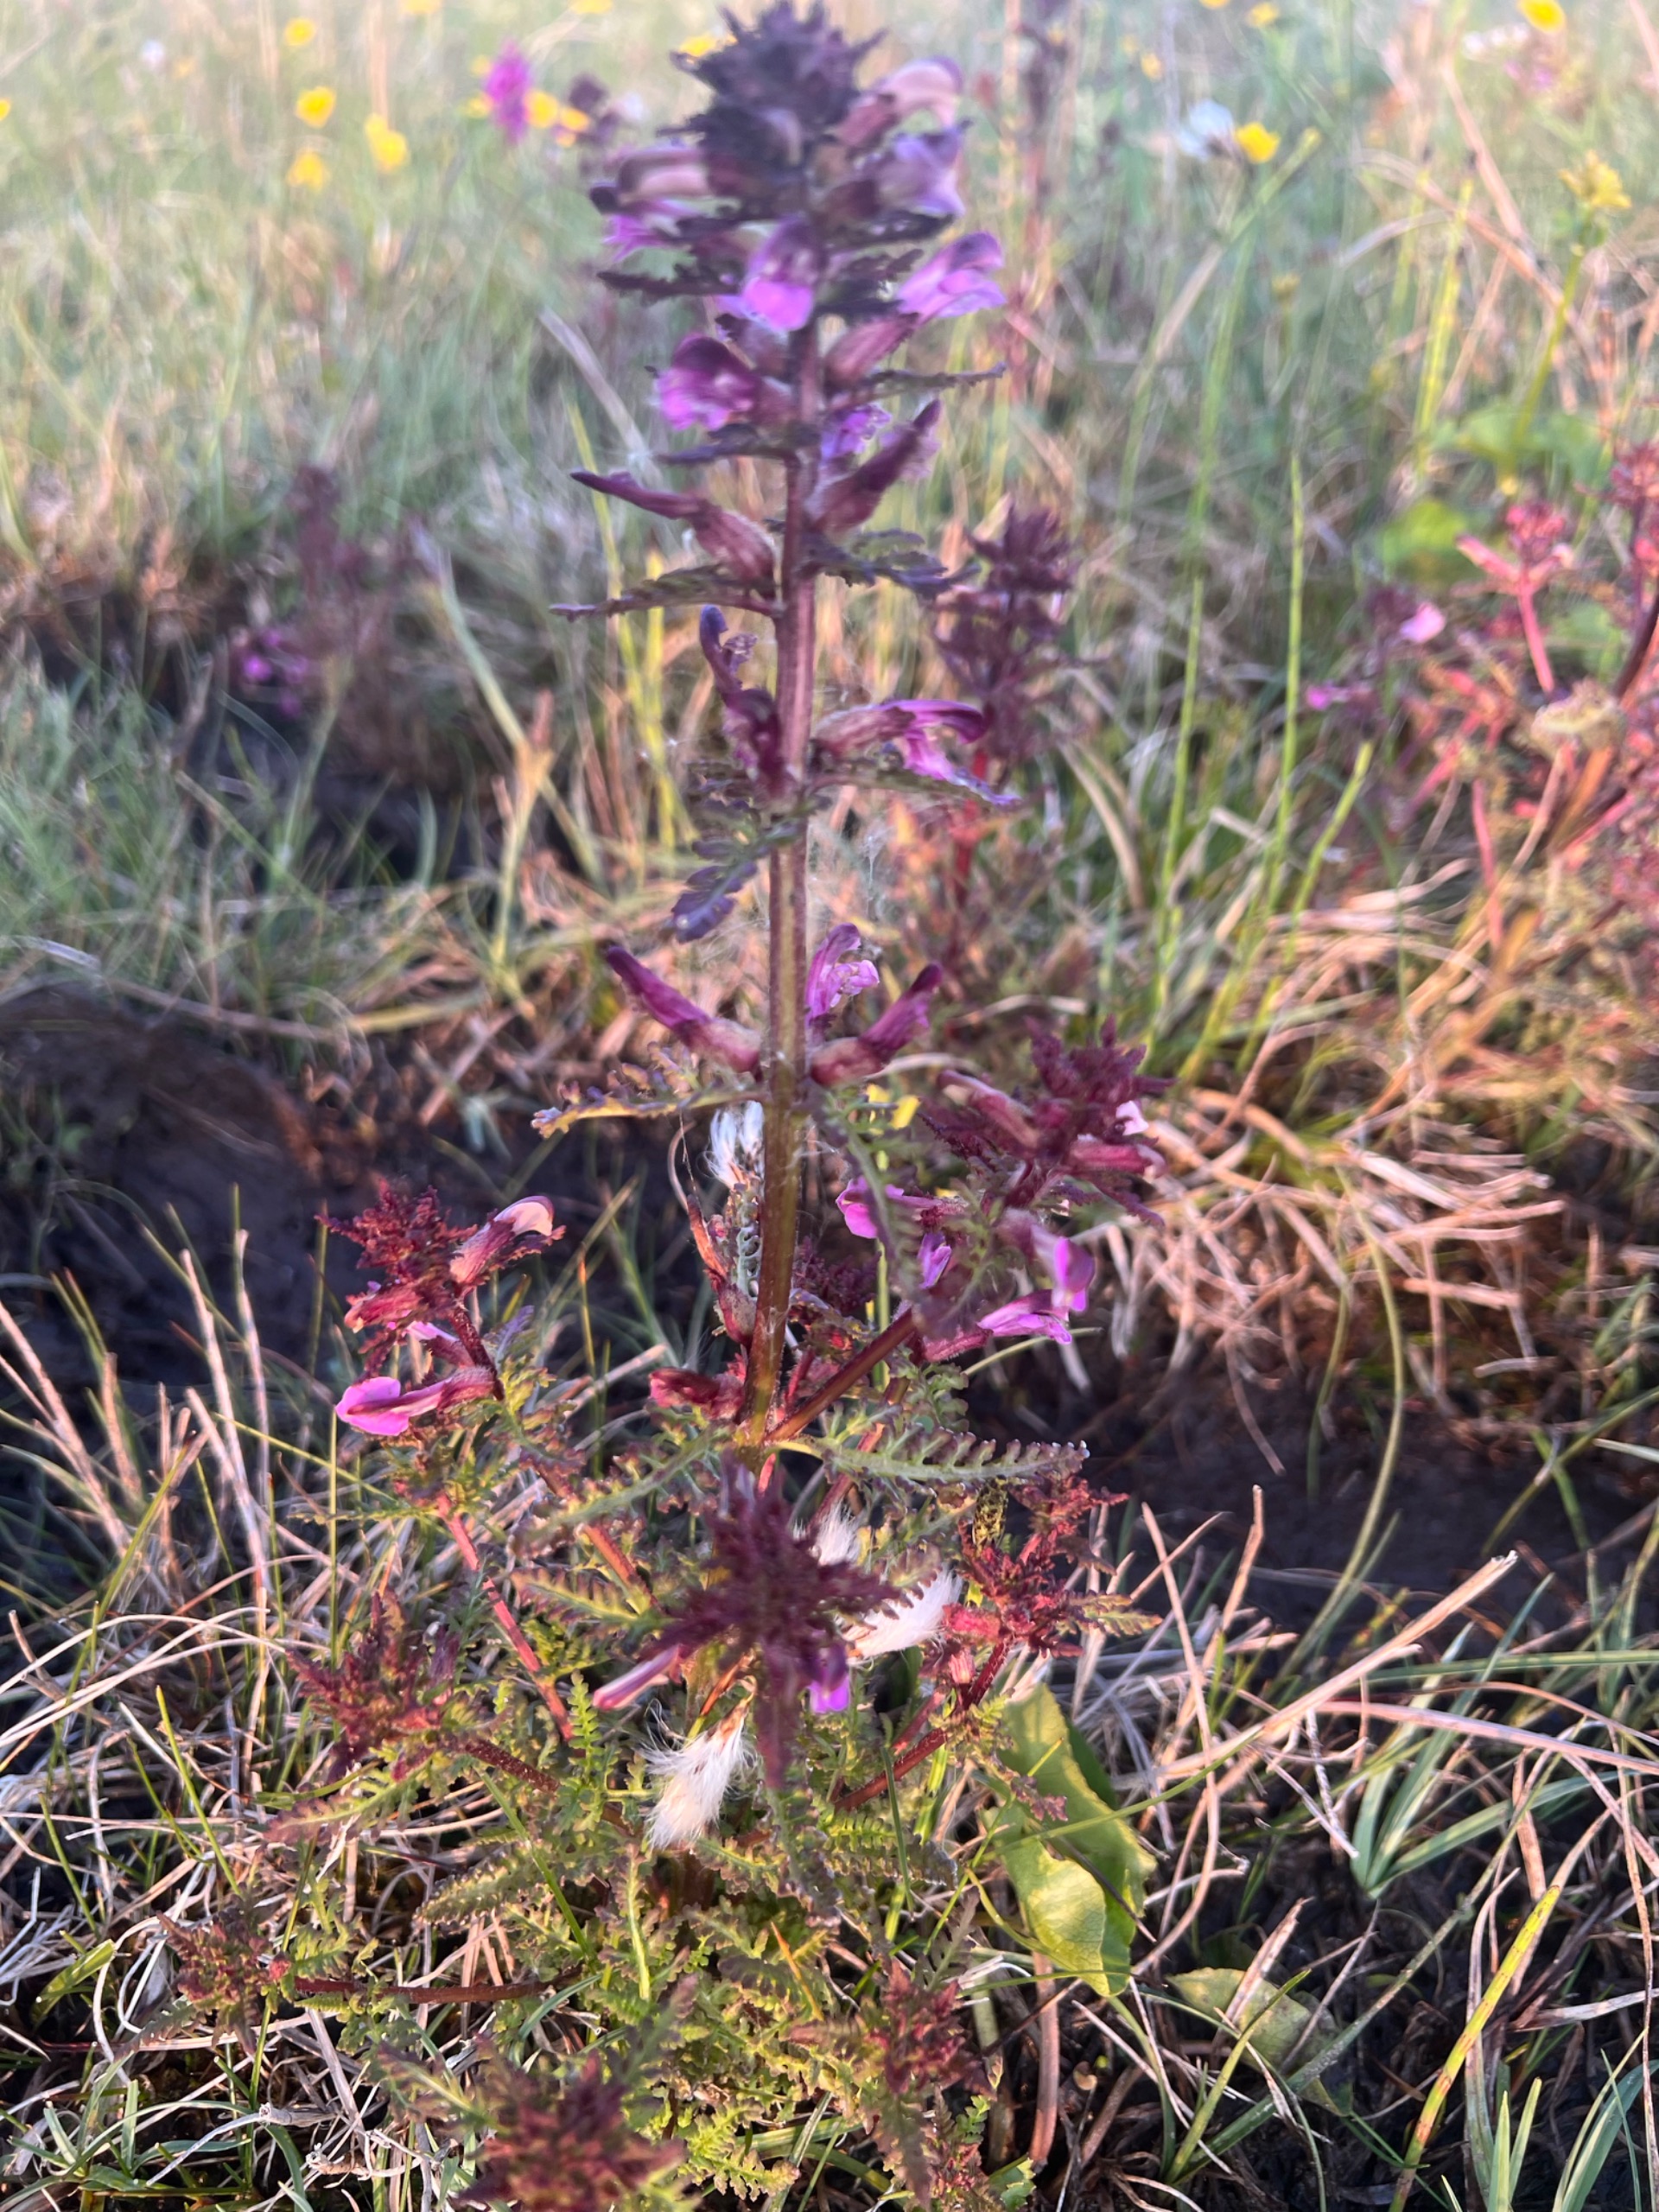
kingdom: Plantae
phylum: Tracheophyta
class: Magnoliopsida
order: Lamiales
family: Orobanchaceae
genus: Pedicularis
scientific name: Pedicularis palustris
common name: Eng-troldurt
